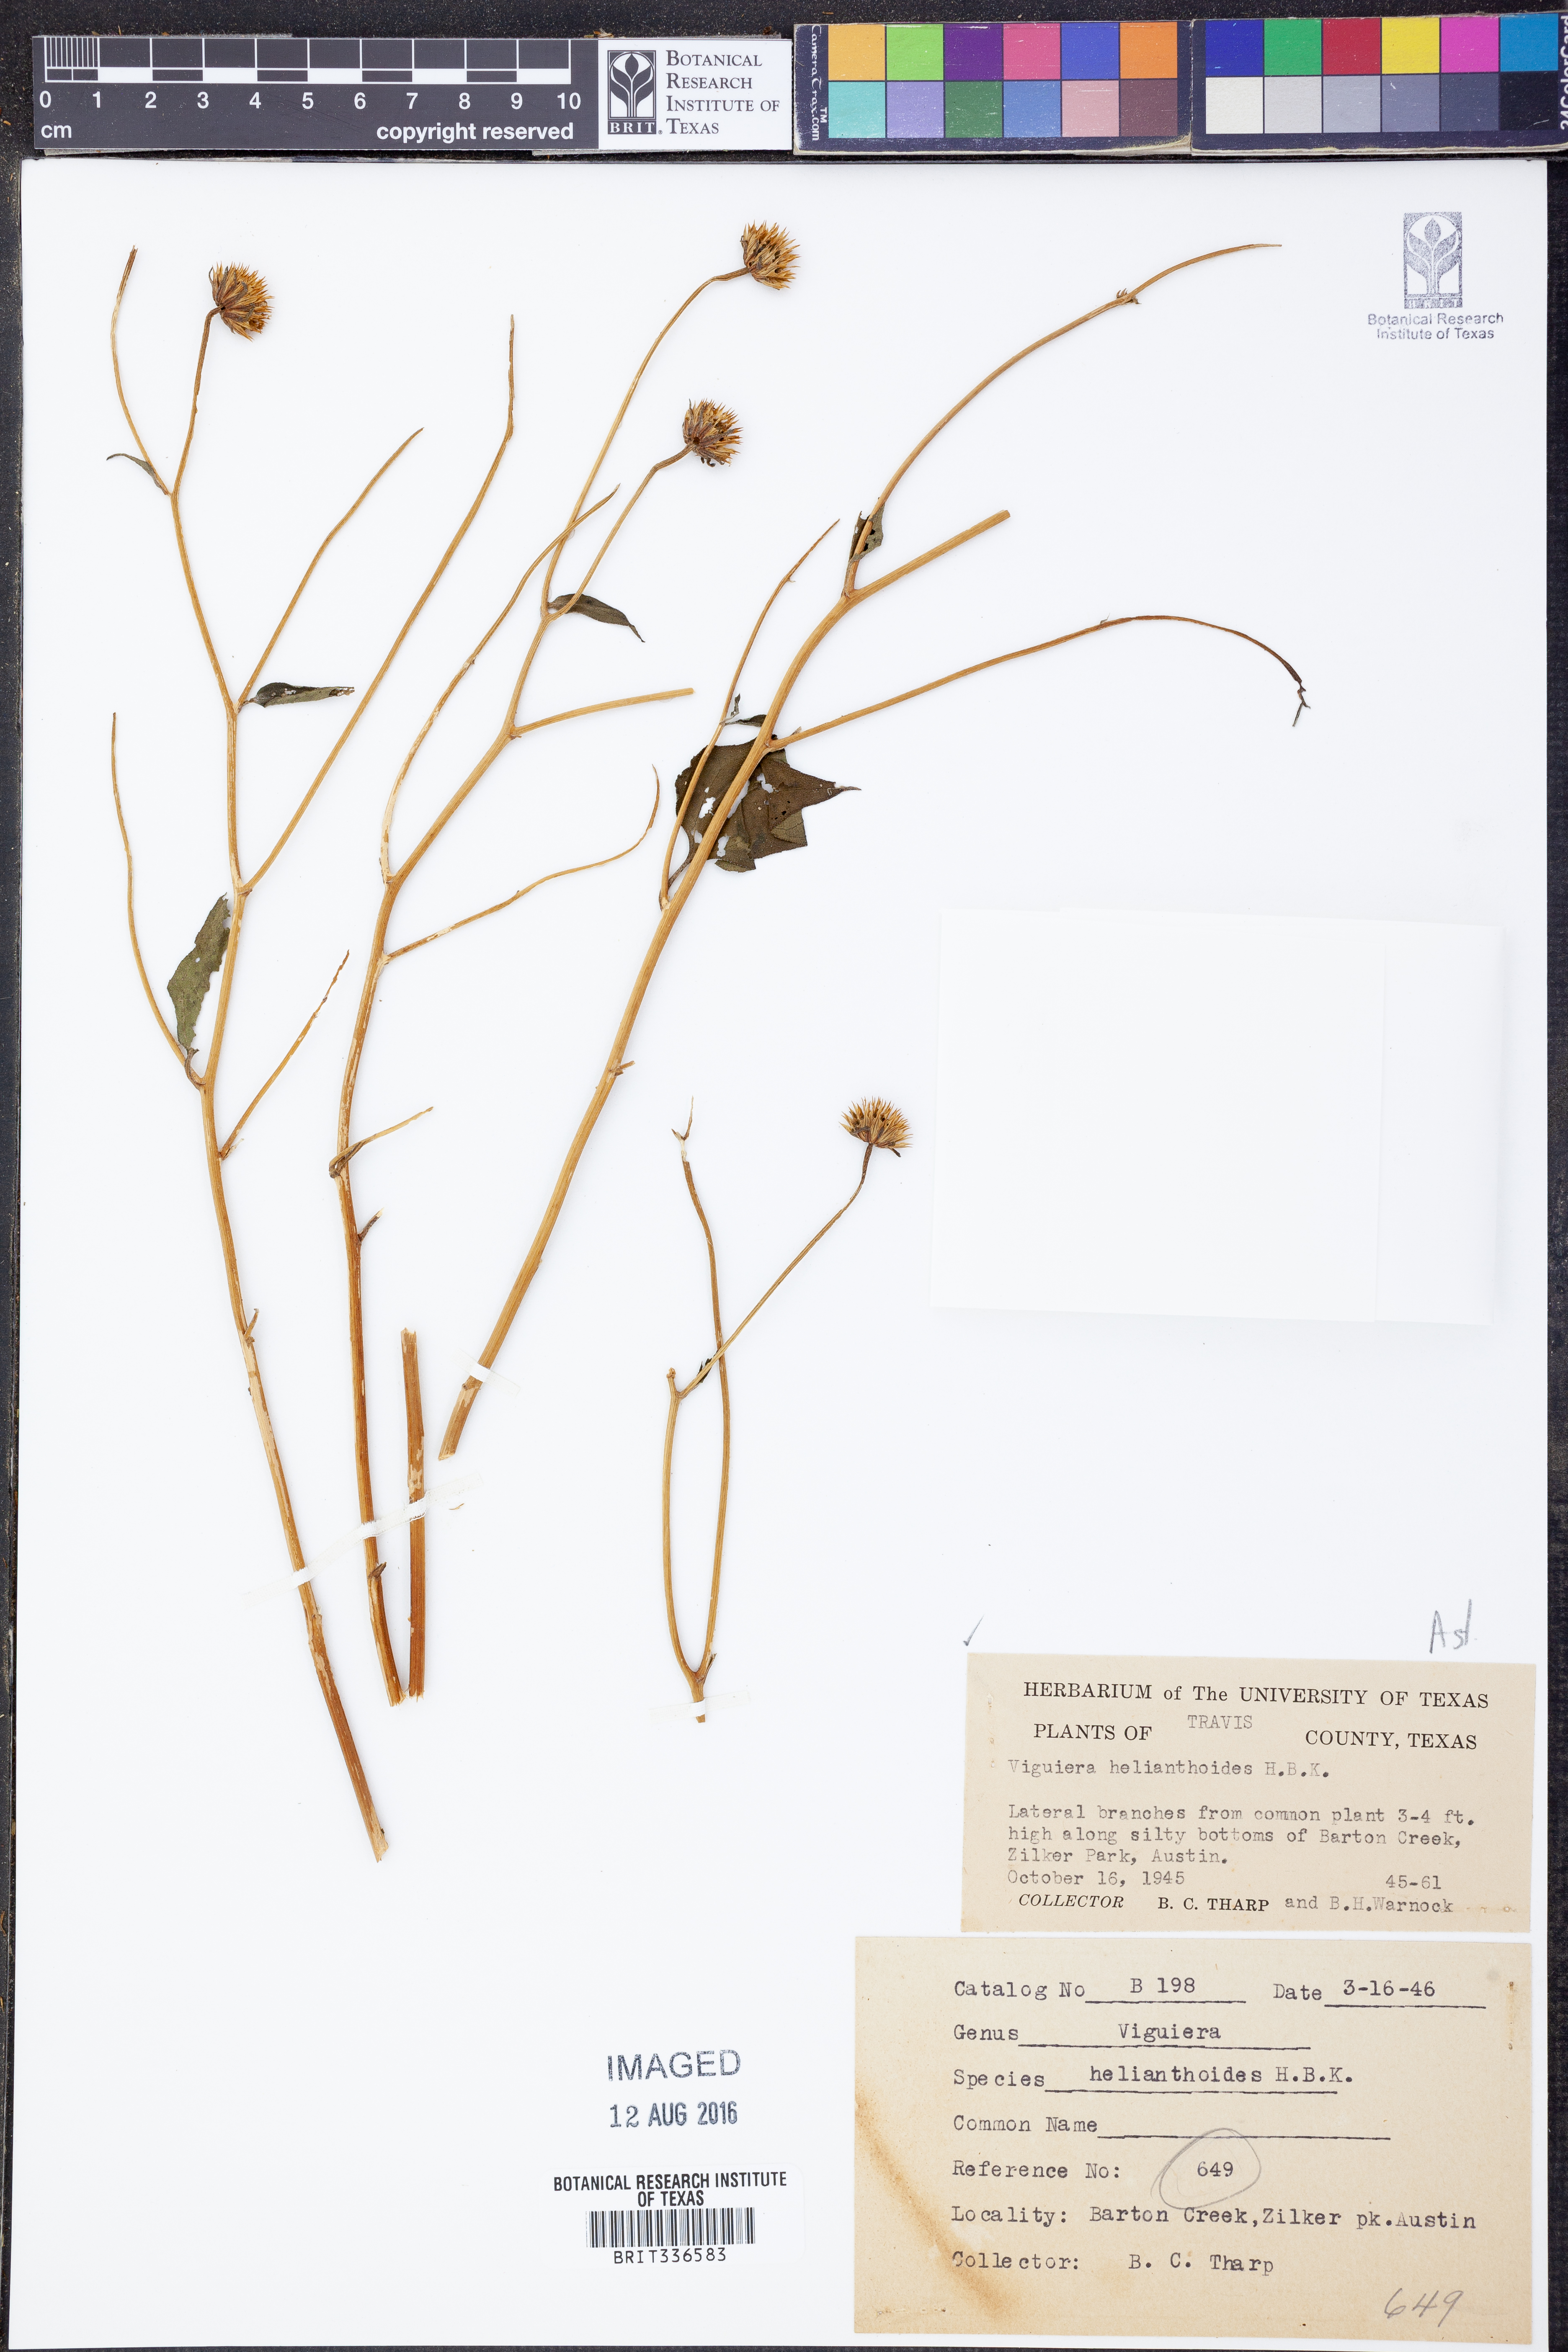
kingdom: Plantae
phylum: Tracheophyta
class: Magnoliopsida
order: Asterales
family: Asteraceae
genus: Viguiera
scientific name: Viguiera dentata
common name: Toothleaf
